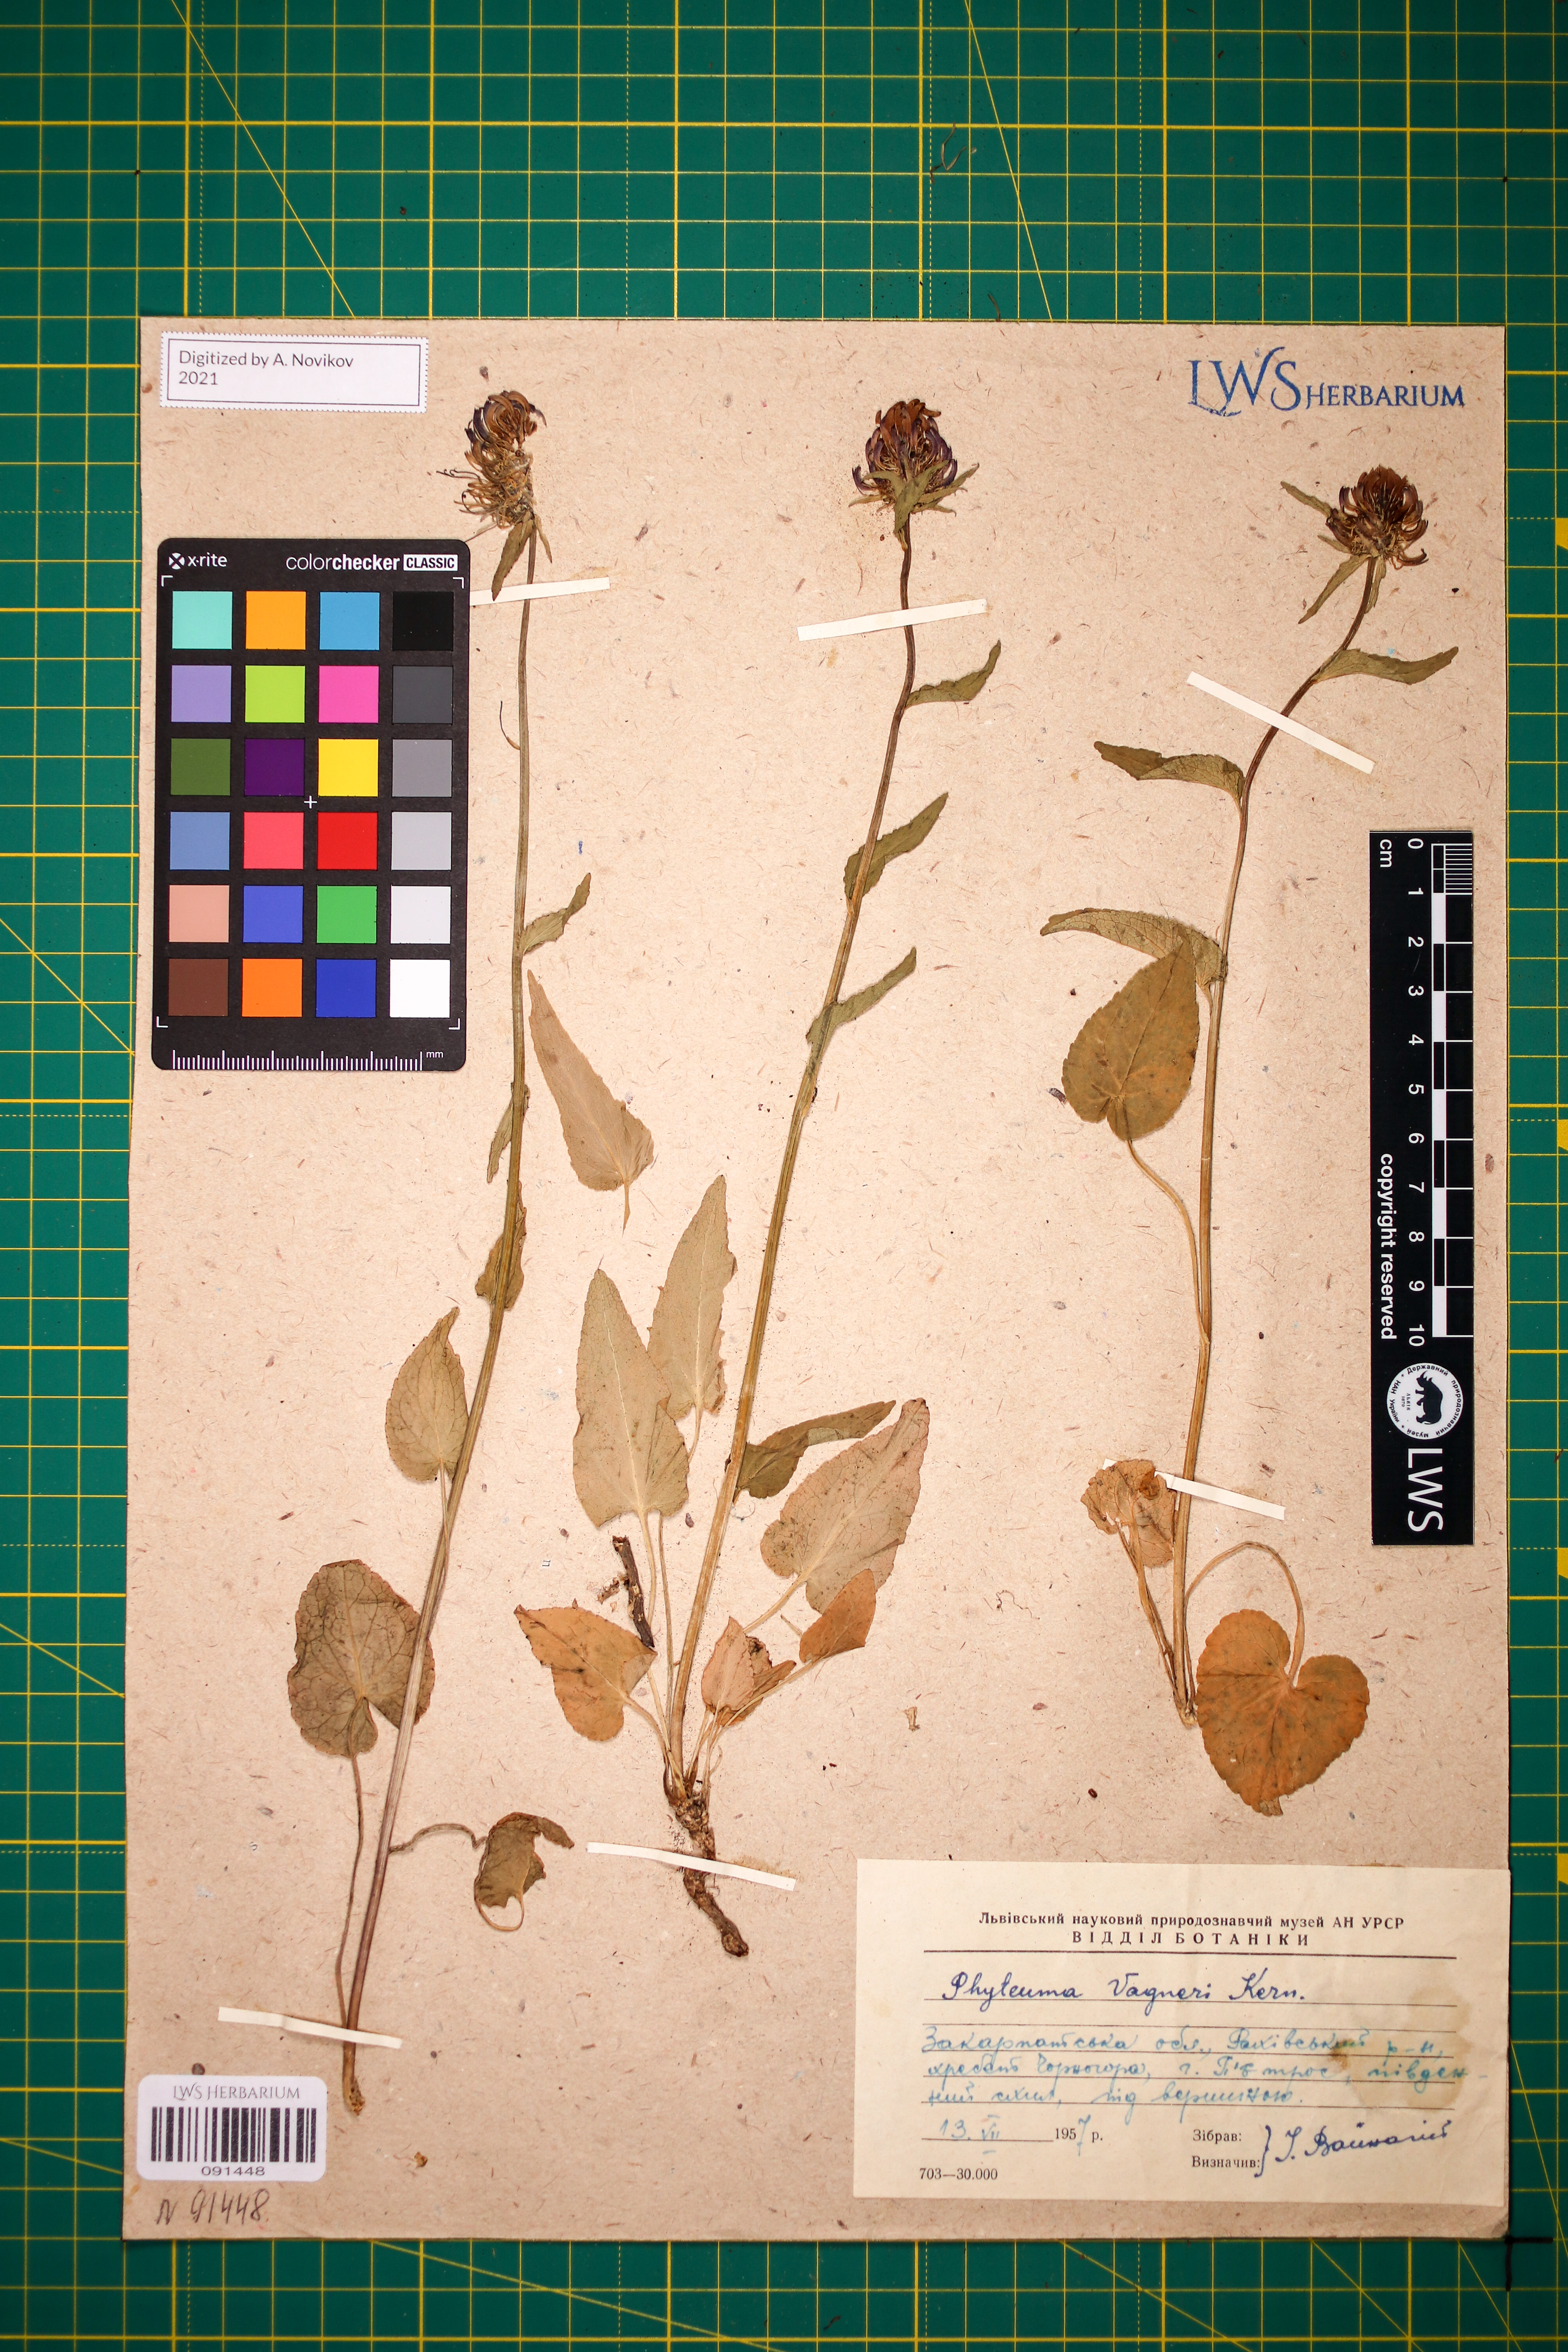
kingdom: Plantae
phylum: Tracheophyta
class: Magnoliopsida
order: Asterales
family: Campanulaceae
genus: Phyteuma
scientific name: Phyteuma vagneri
